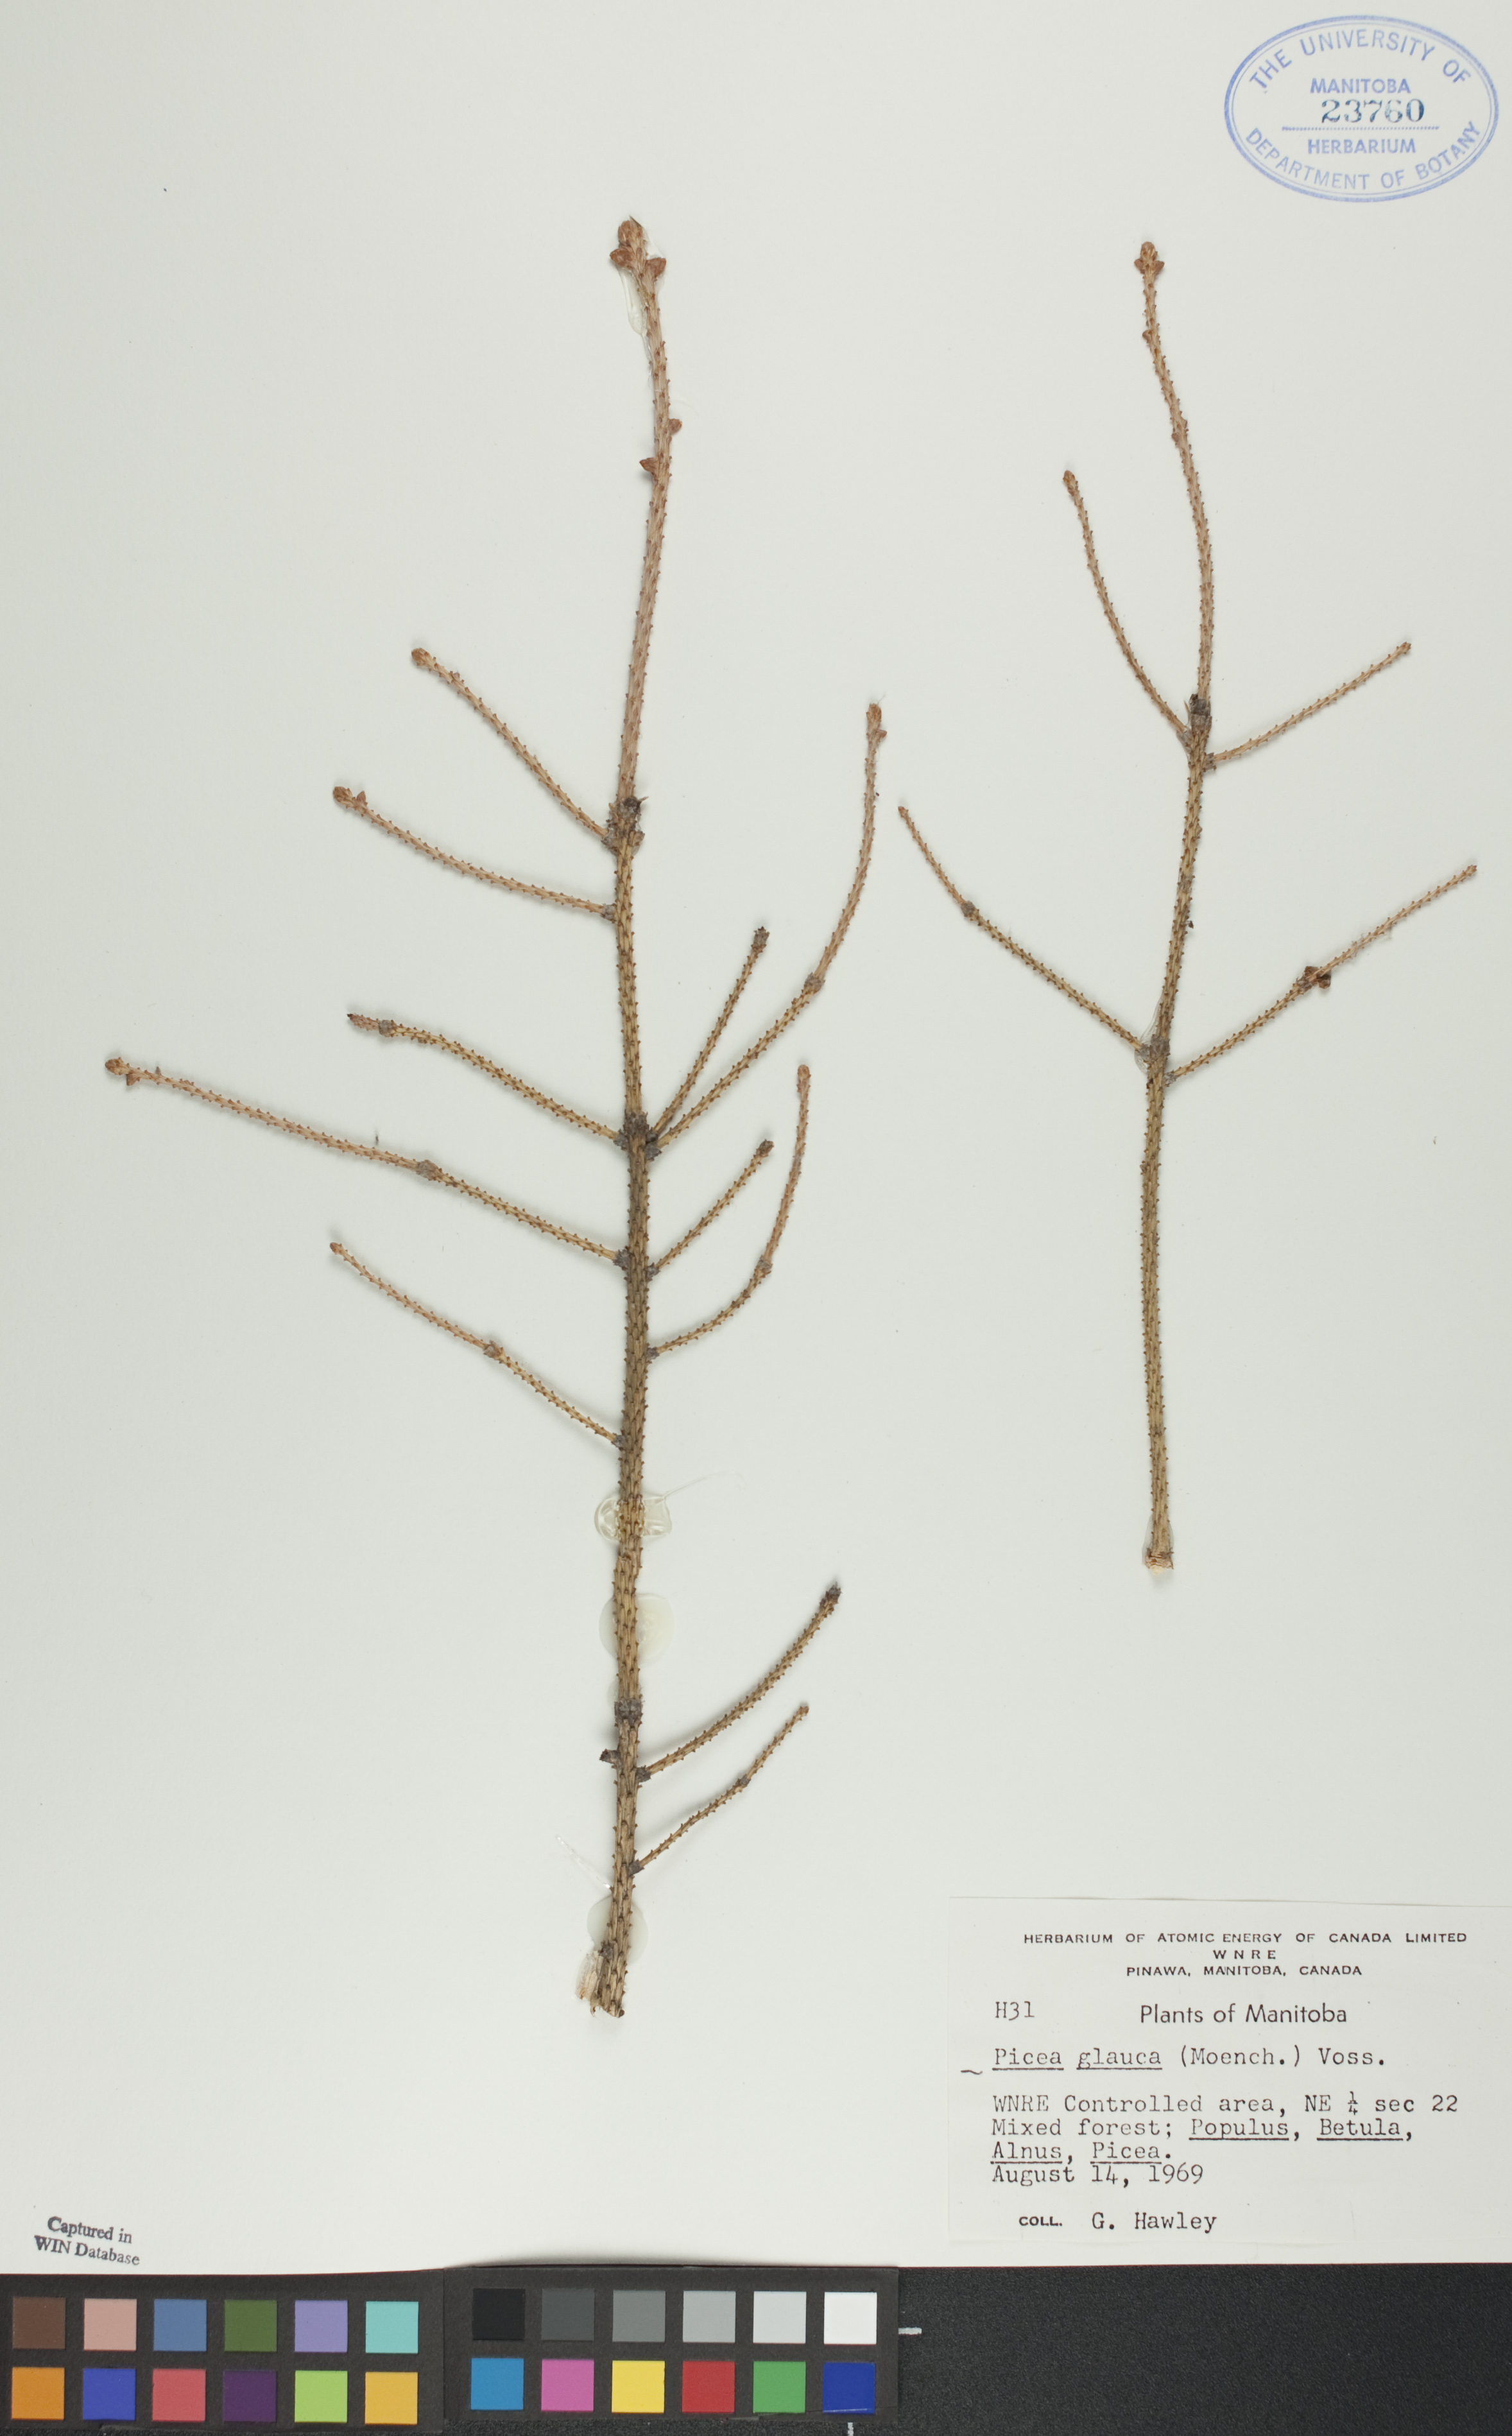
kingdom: Plantae
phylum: Tracheophyta
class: Pinopsida
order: Pinales
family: Pinaceae
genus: Picea
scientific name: Picea glauca
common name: White spruce
